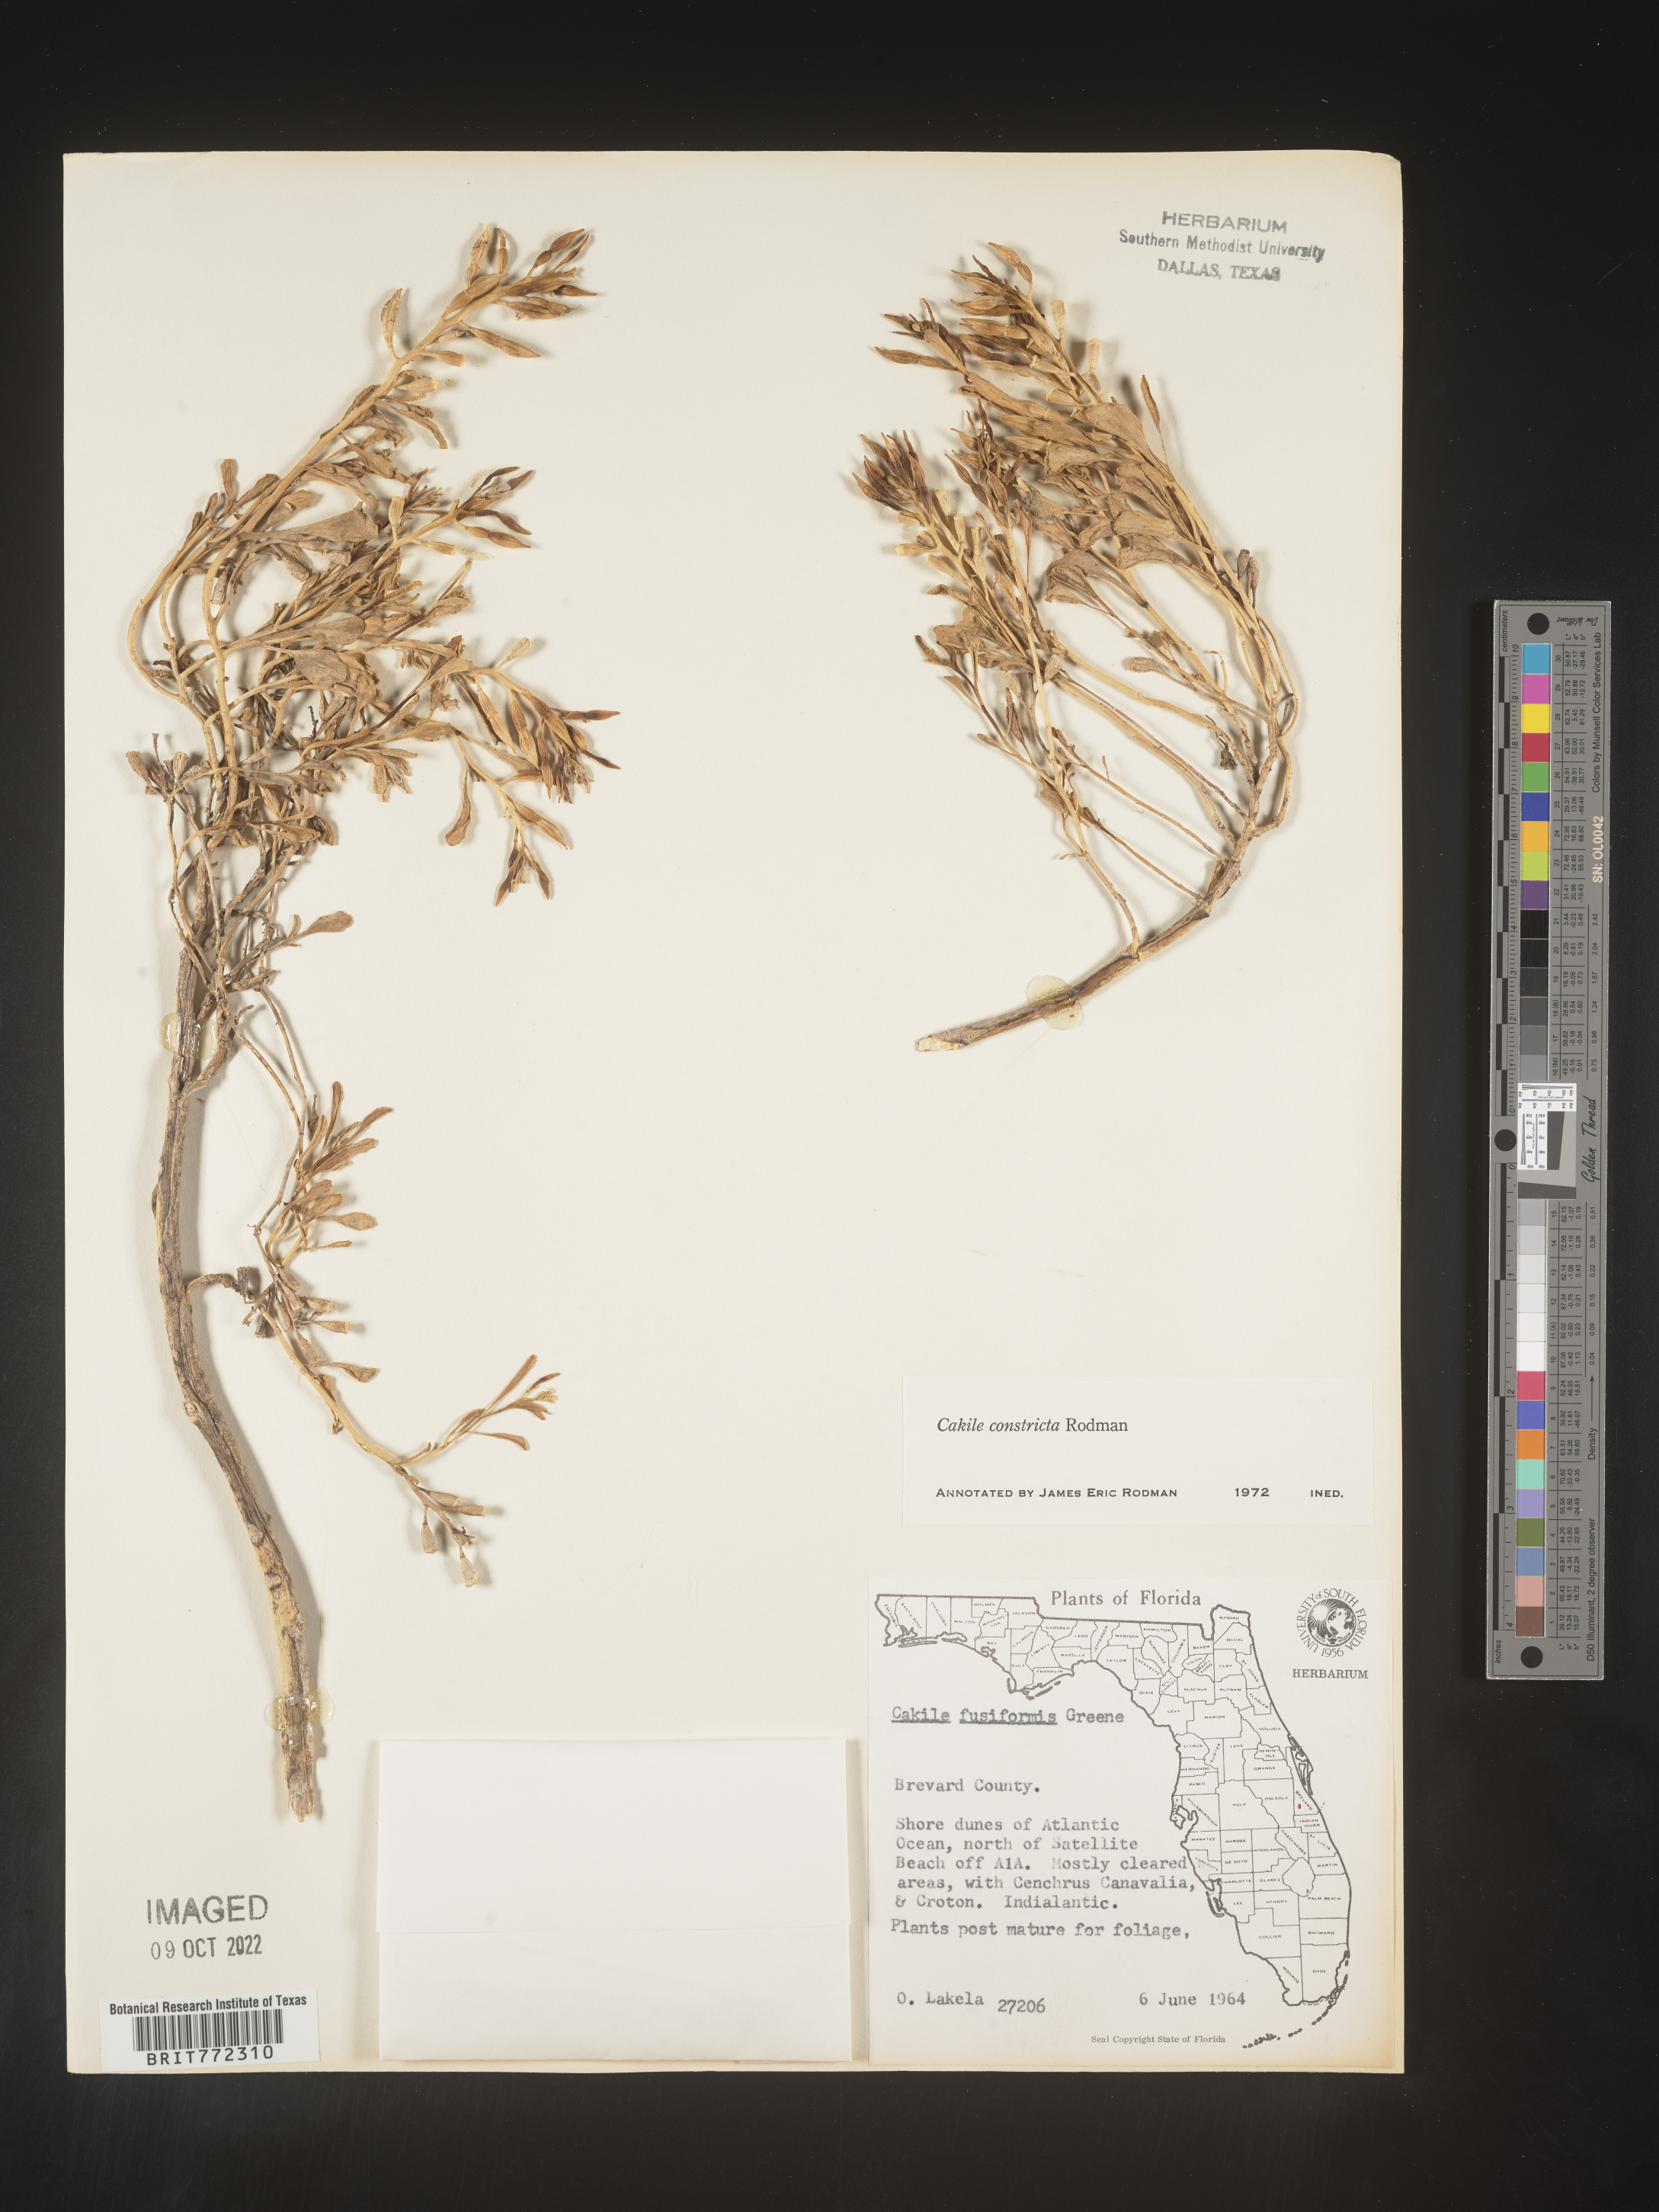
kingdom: Plantae
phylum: Tracheophyta
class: Magnoliopsida
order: Brassicales
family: Brassicaceae
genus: Cakile
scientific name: Cakile constricta
